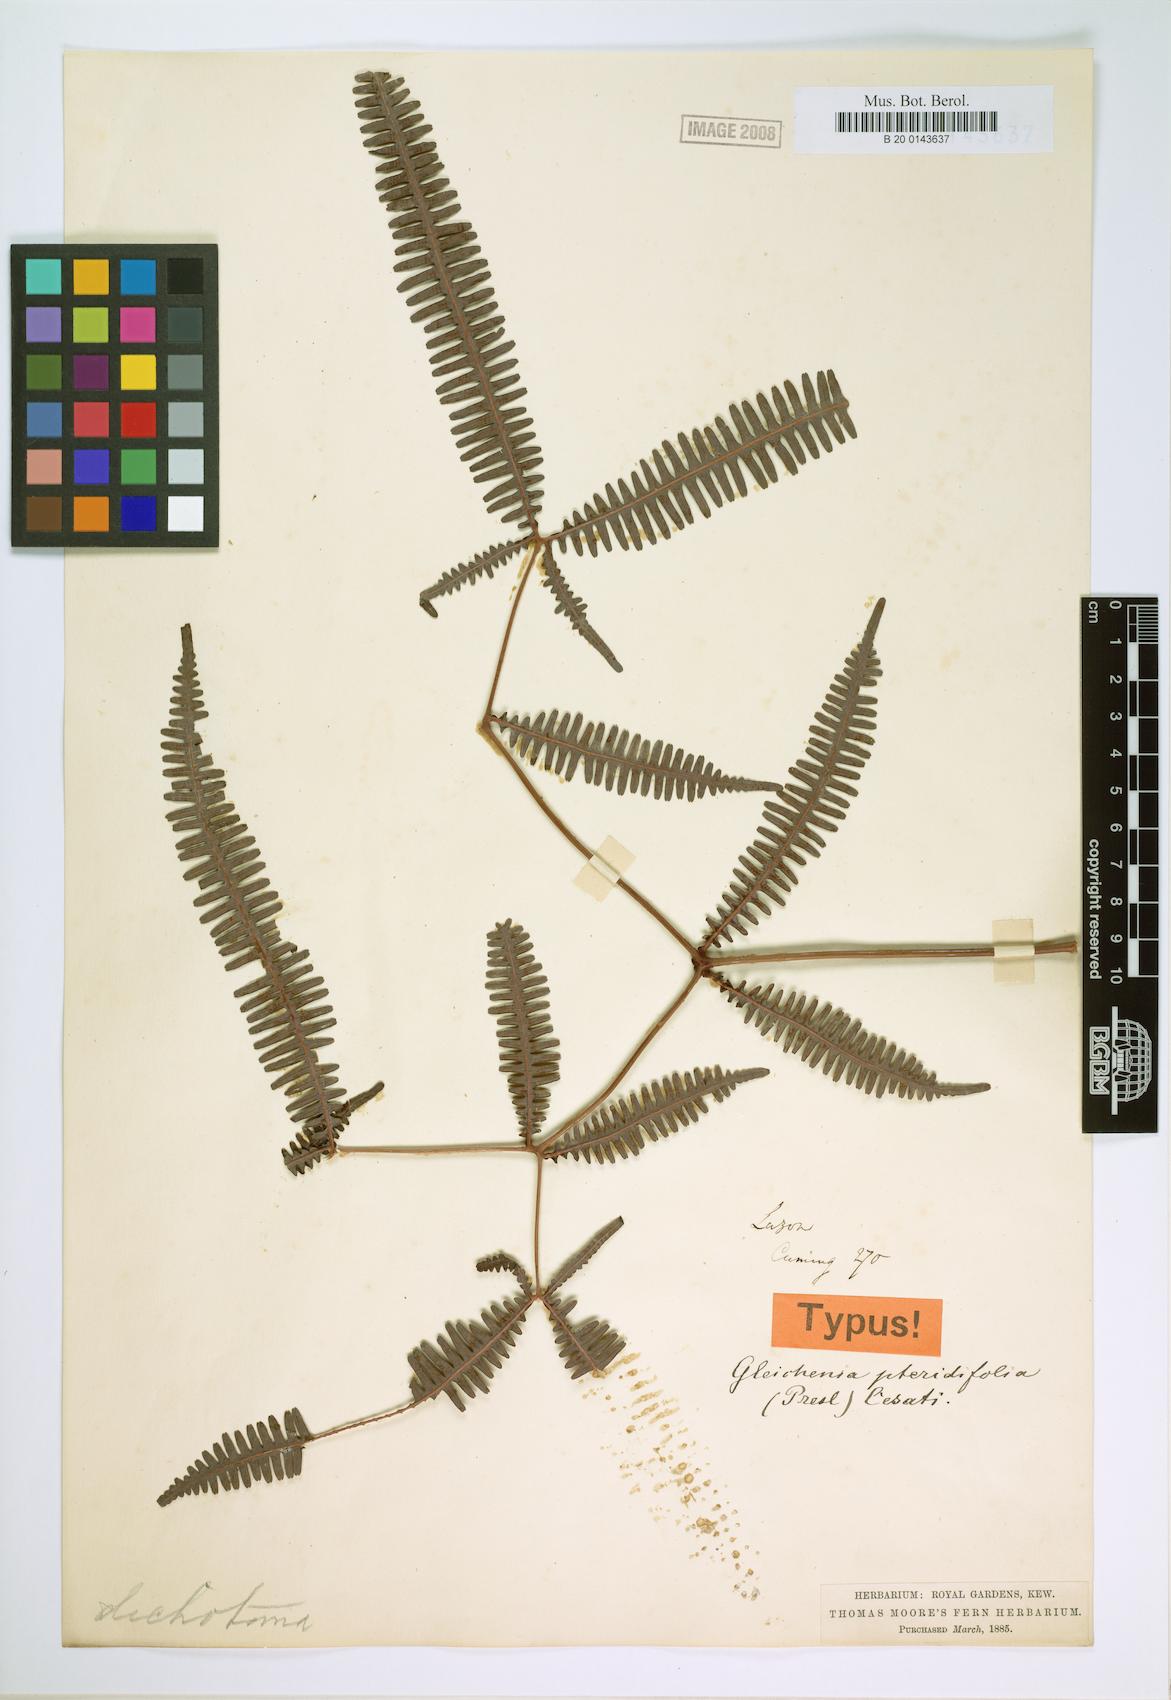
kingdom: Plantae
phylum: Tracheophyta
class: Polypodiopsida
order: Gleicheniales
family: Gleicheniaceae
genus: Dicranopteris
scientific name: Dicranopteris linearis
